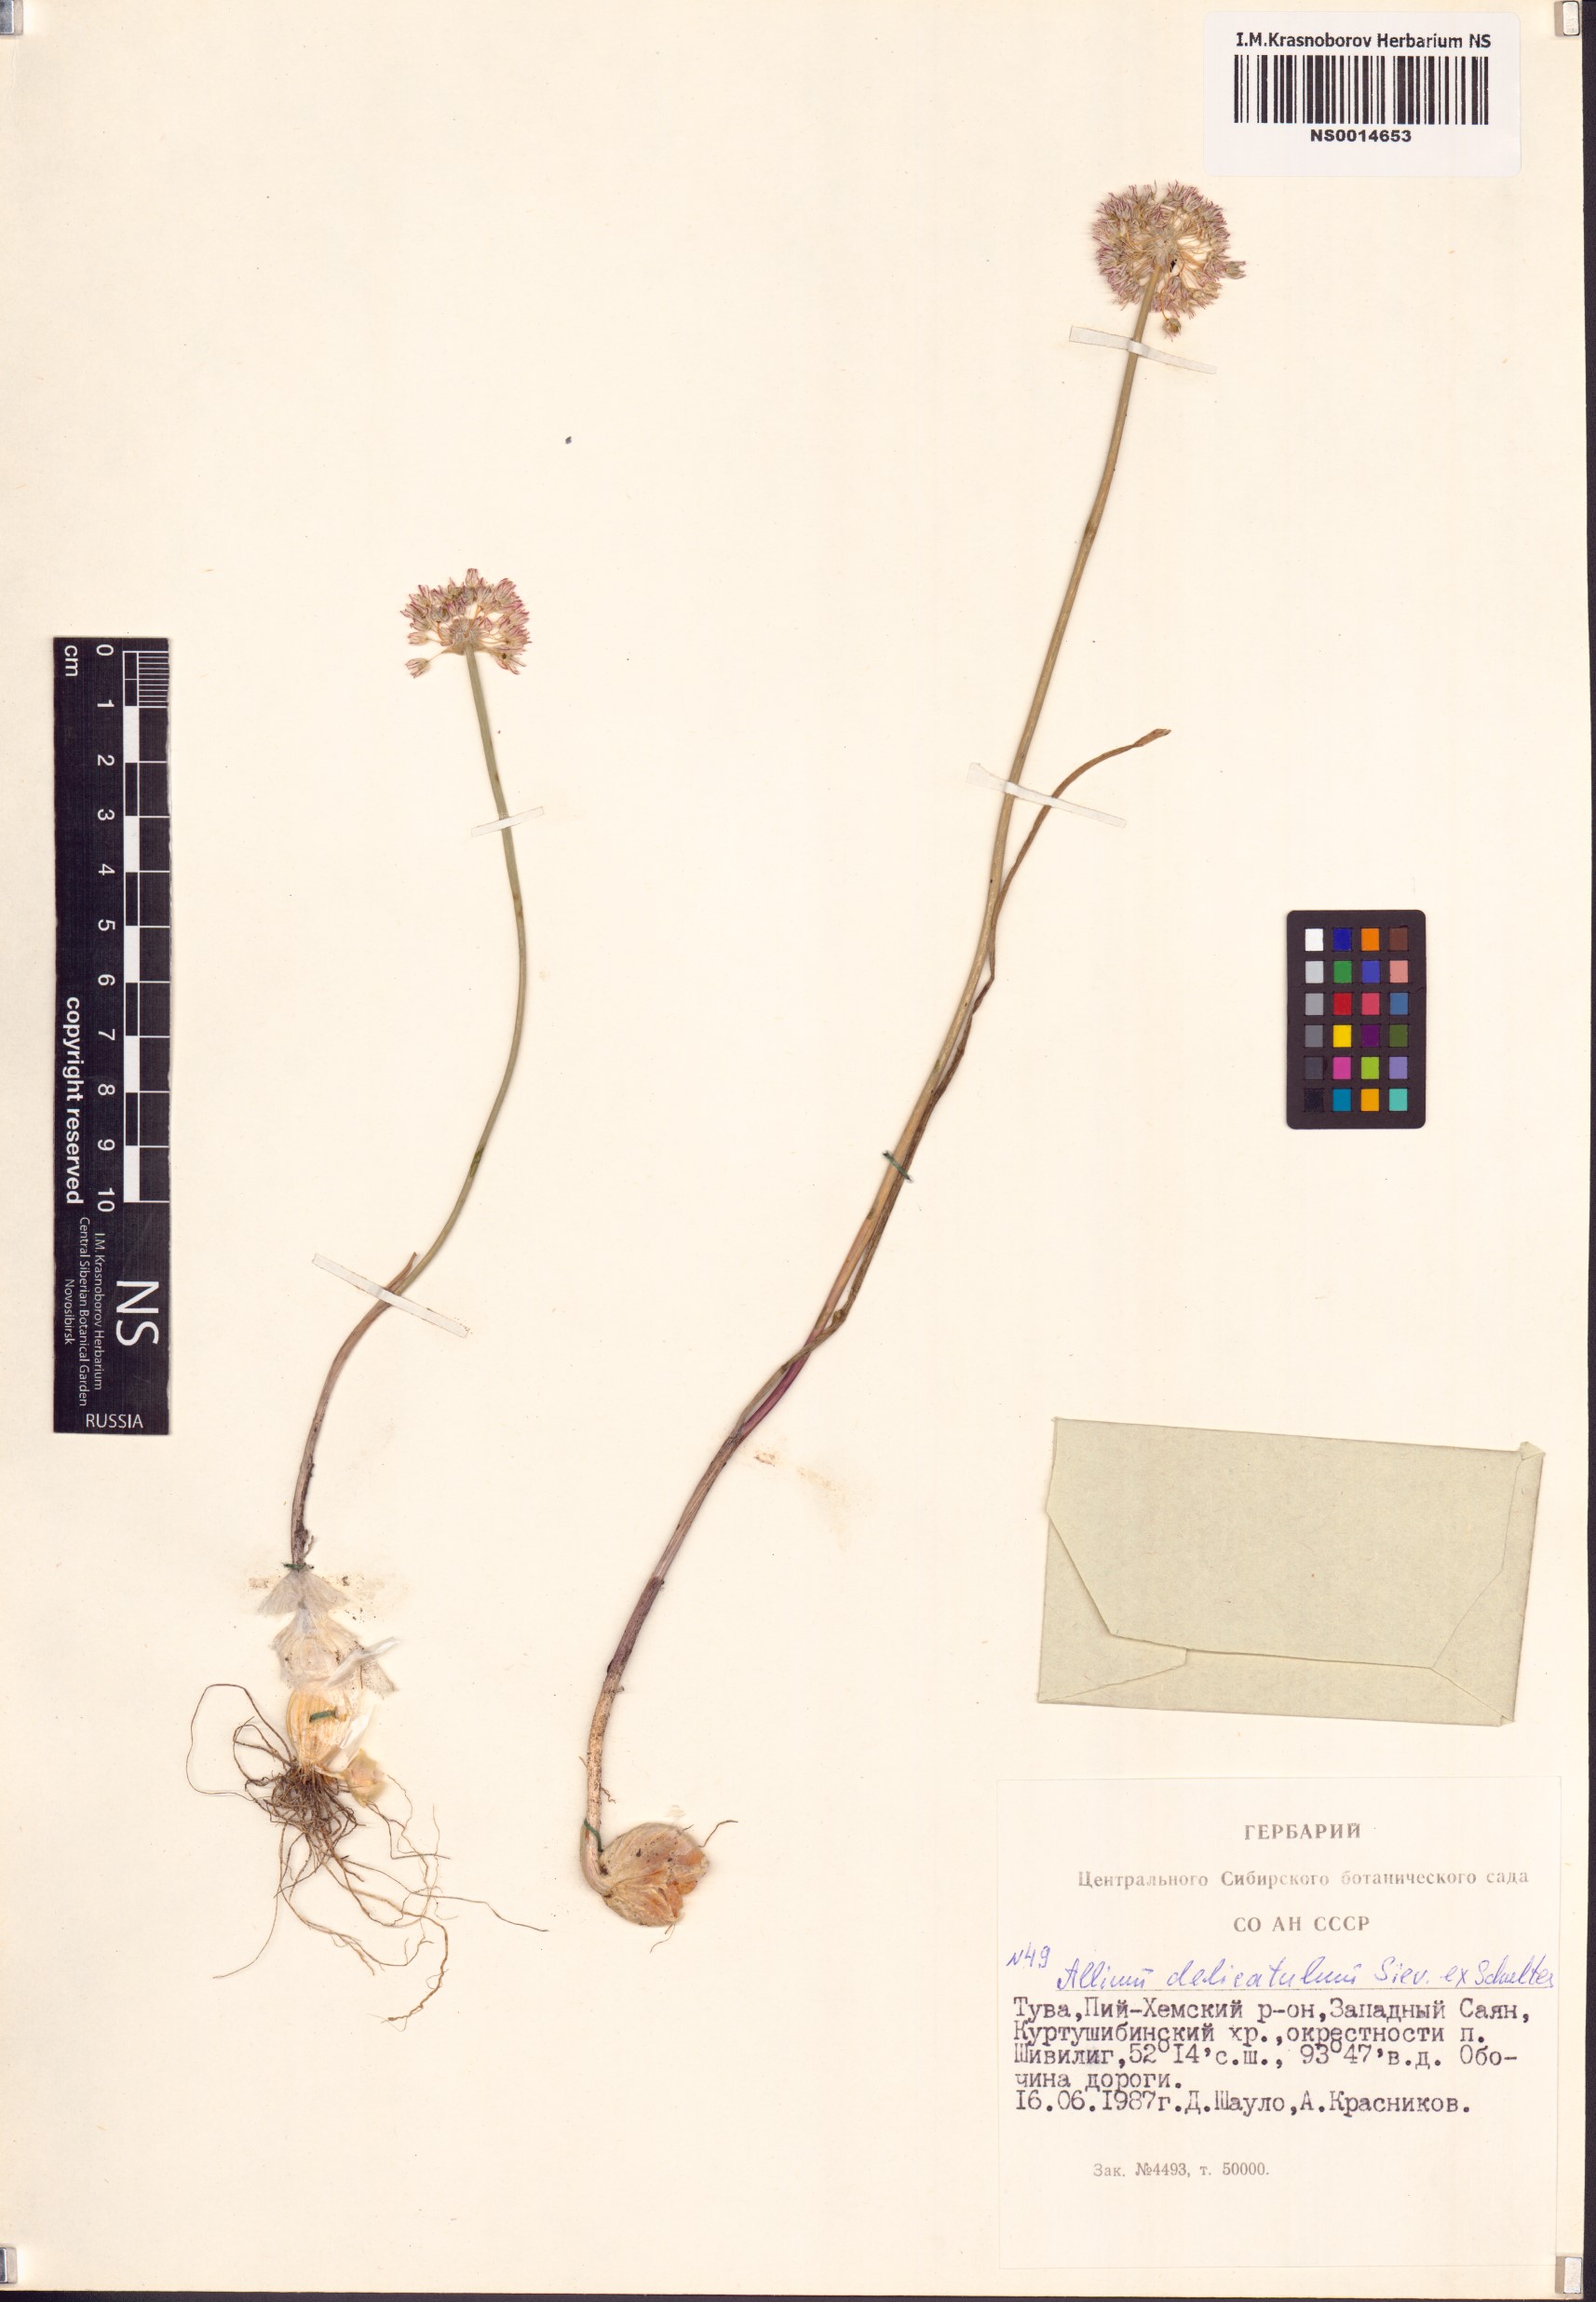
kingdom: Plantae
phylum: Tracheophyta
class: Liliopsida
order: Asparagales
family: Amaryllidaceae
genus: Allium
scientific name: Allium delicatulum
